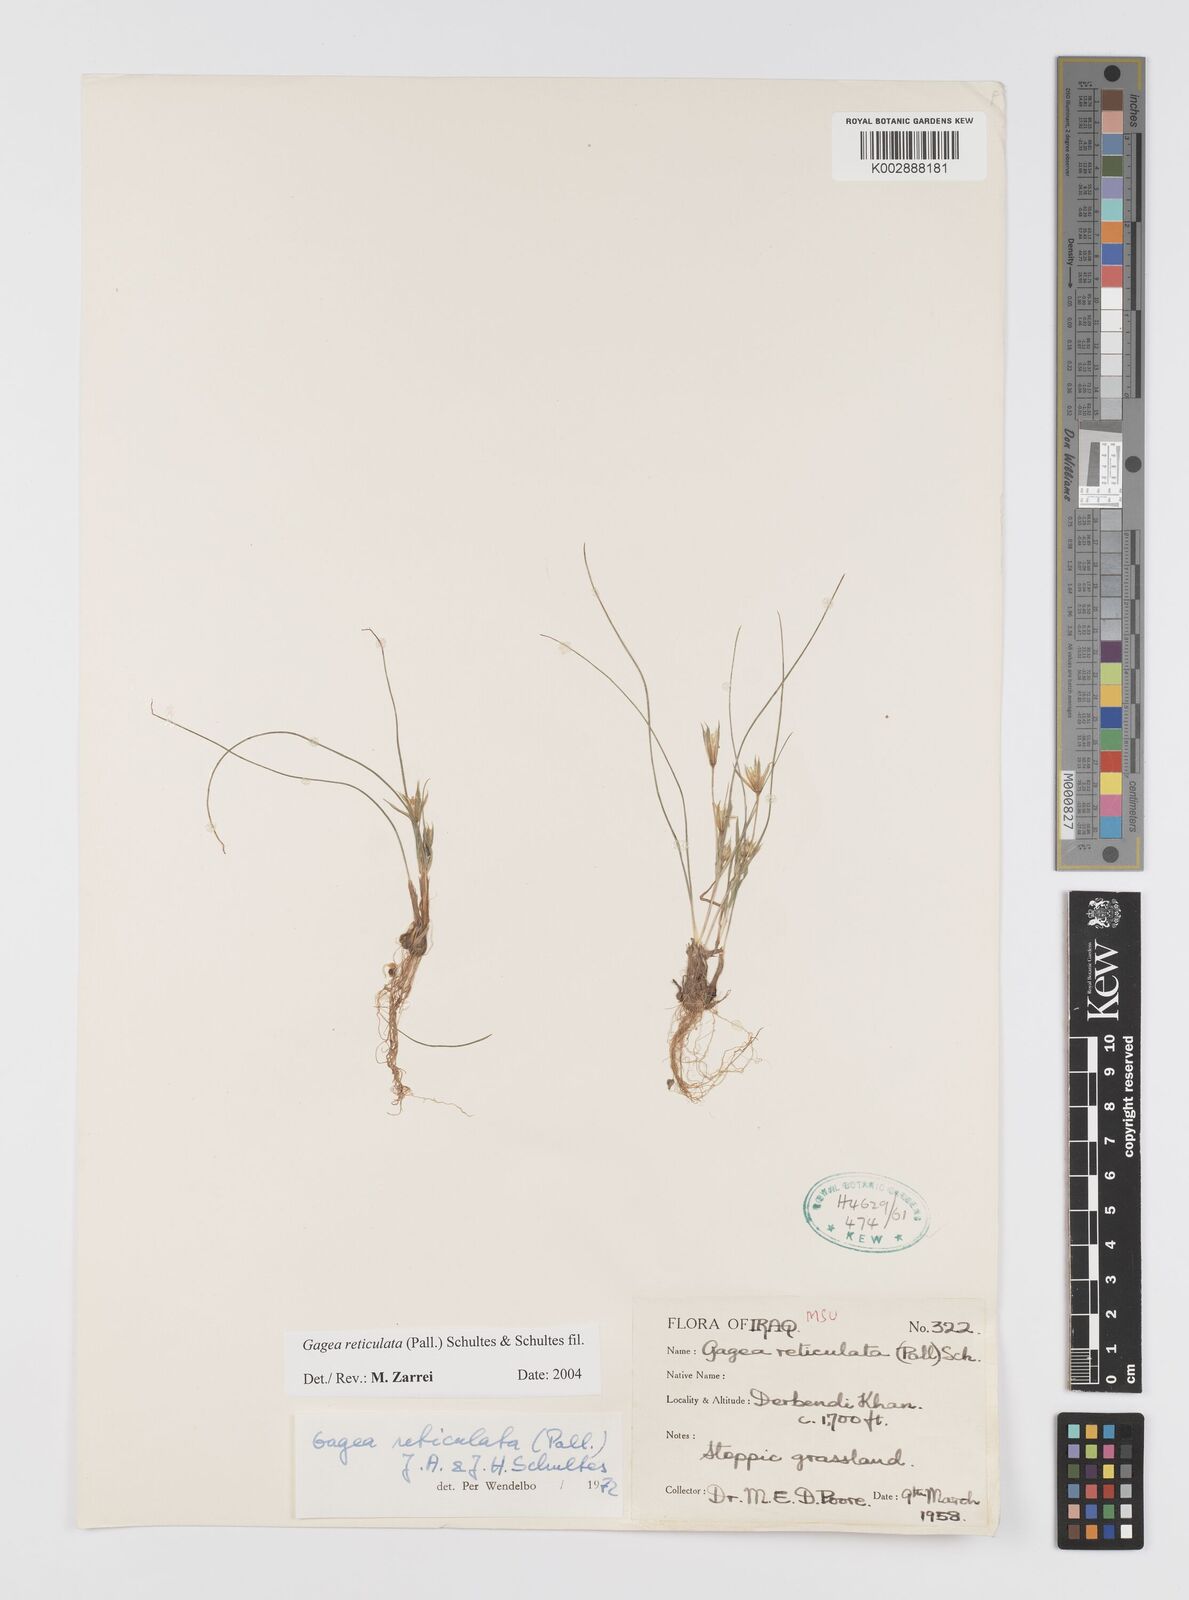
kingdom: Plantae
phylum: Tracheophyta
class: Liliopsida
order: Liliales
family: Liliaceae
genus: Gagea
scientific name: Gagea reticulata
